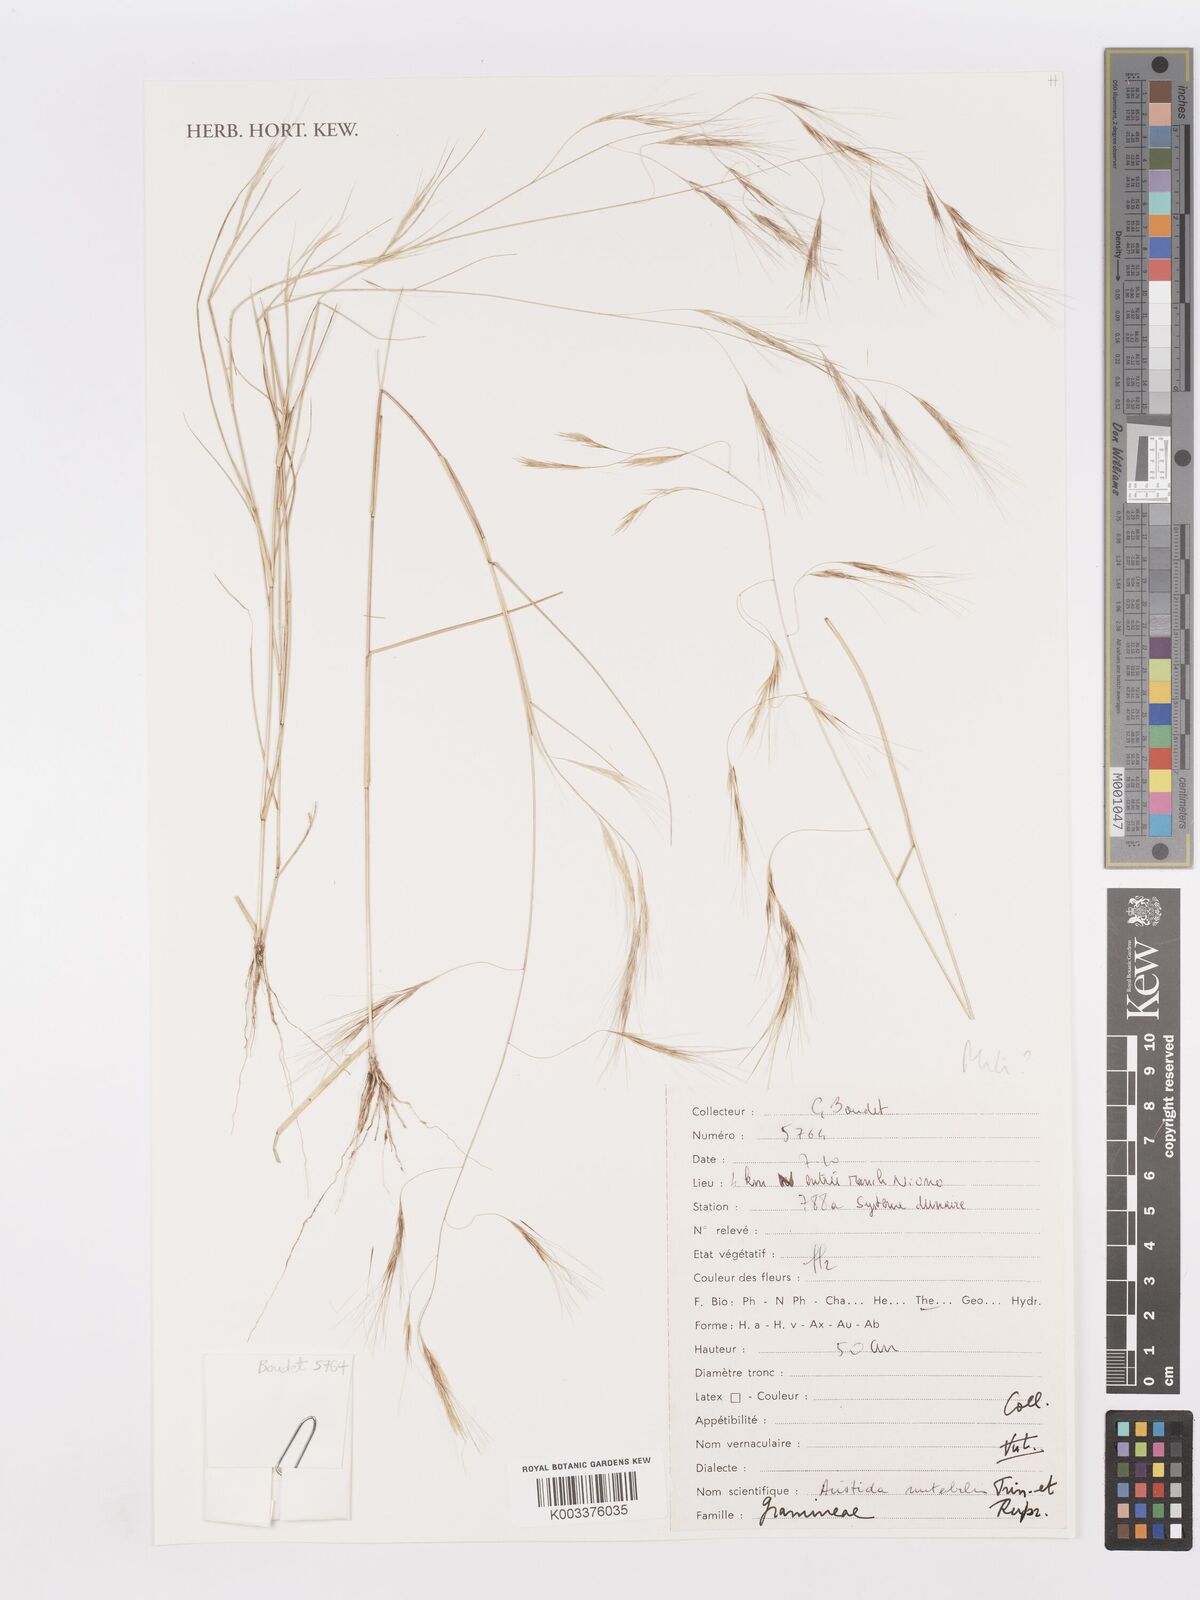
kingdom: Plantae
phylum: Tracheophyta
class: Liliopsida
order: Poales
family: Poaceae
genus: Aristida
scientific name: Aristida mutabilis
